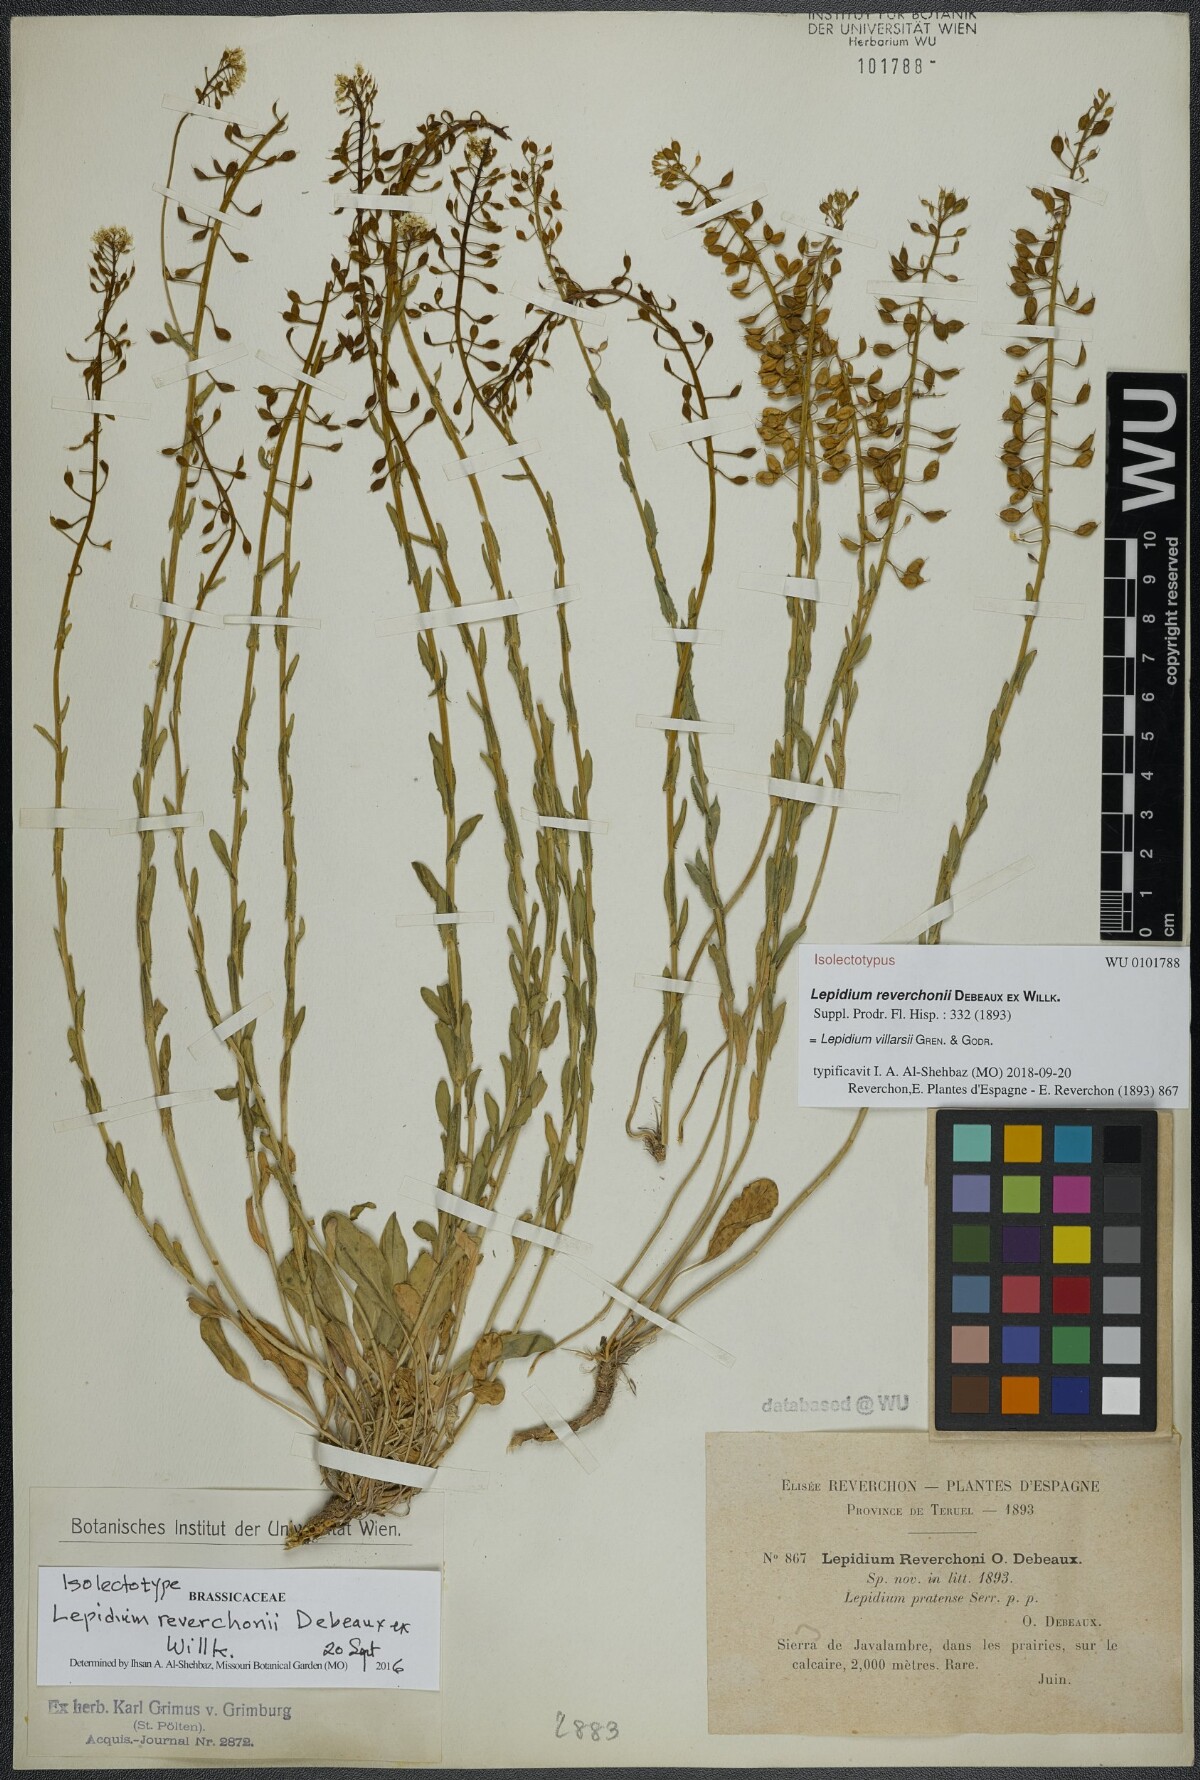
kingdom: Plantae
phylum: Tracheophyta
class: Magnoliopsida
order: Brassicales
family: Brassicaceae
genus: Lepidium
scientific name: Lepidium villarsii
